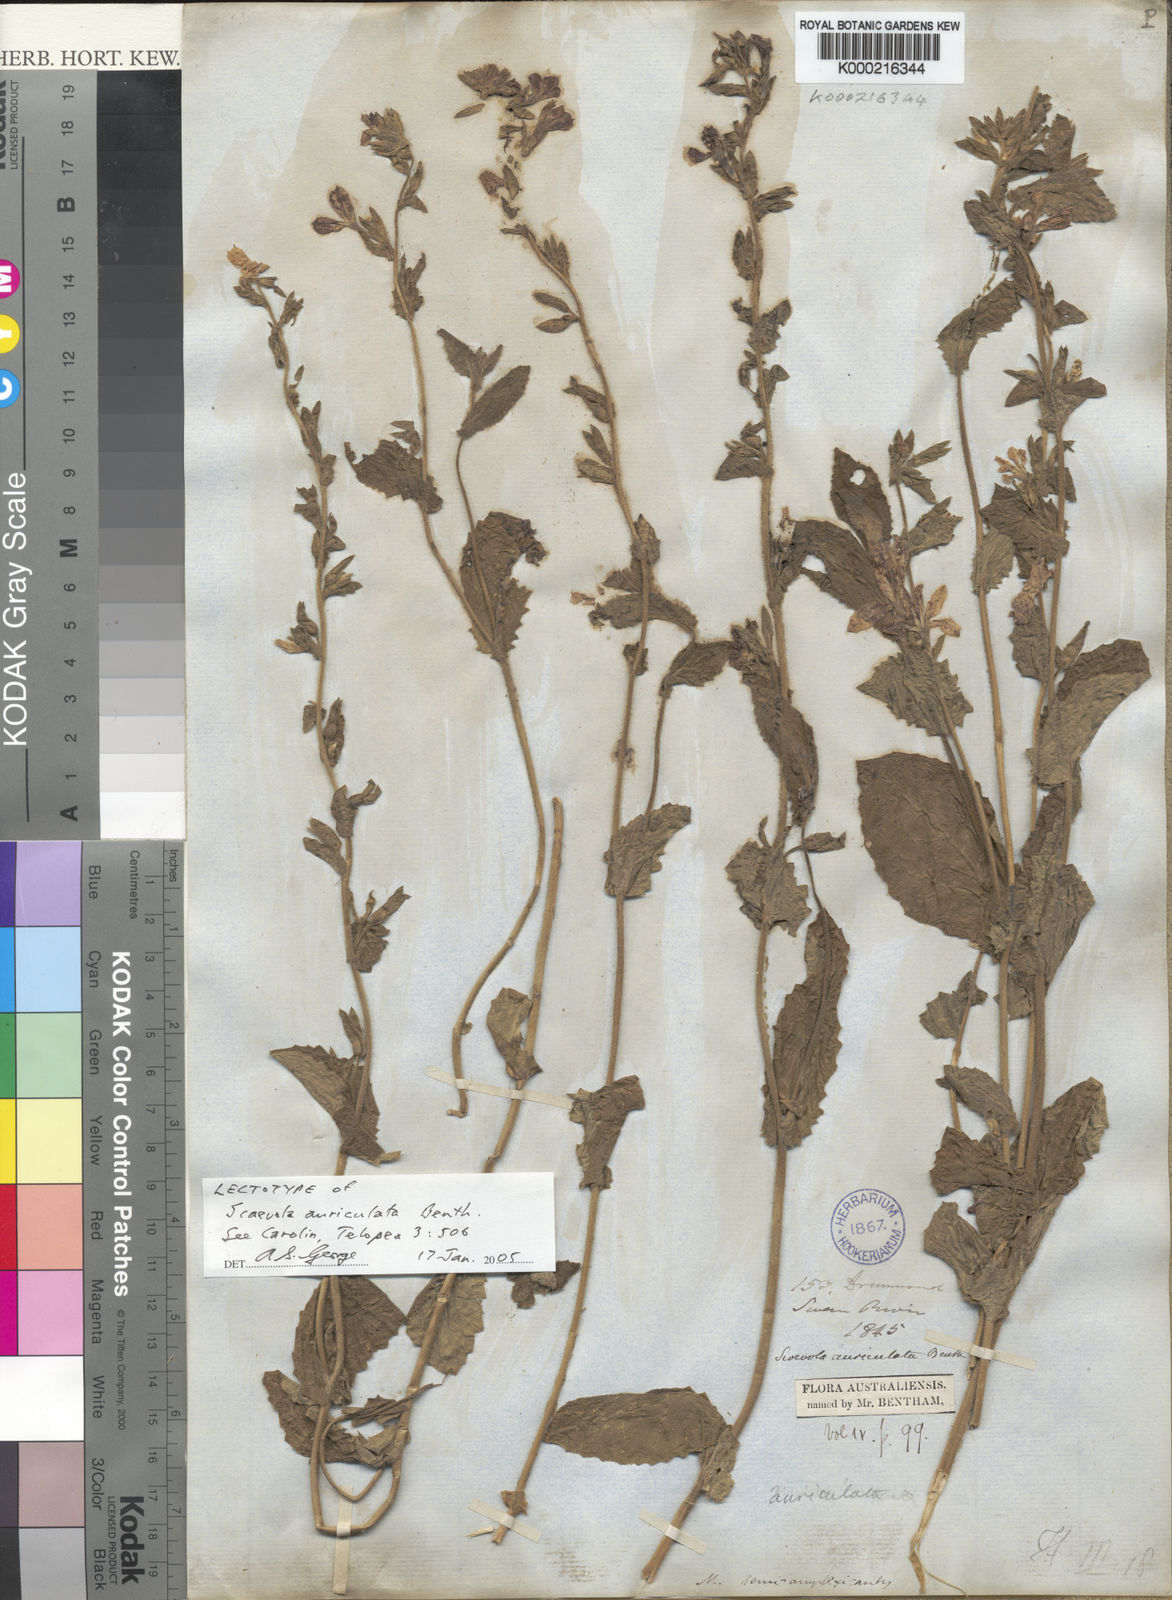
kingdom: Plantae
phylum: Tracheophyta
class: Magnoliopsida
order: Asterales
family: Goodeniaceae
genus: Scaevola
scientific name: Scaevola auriculata
